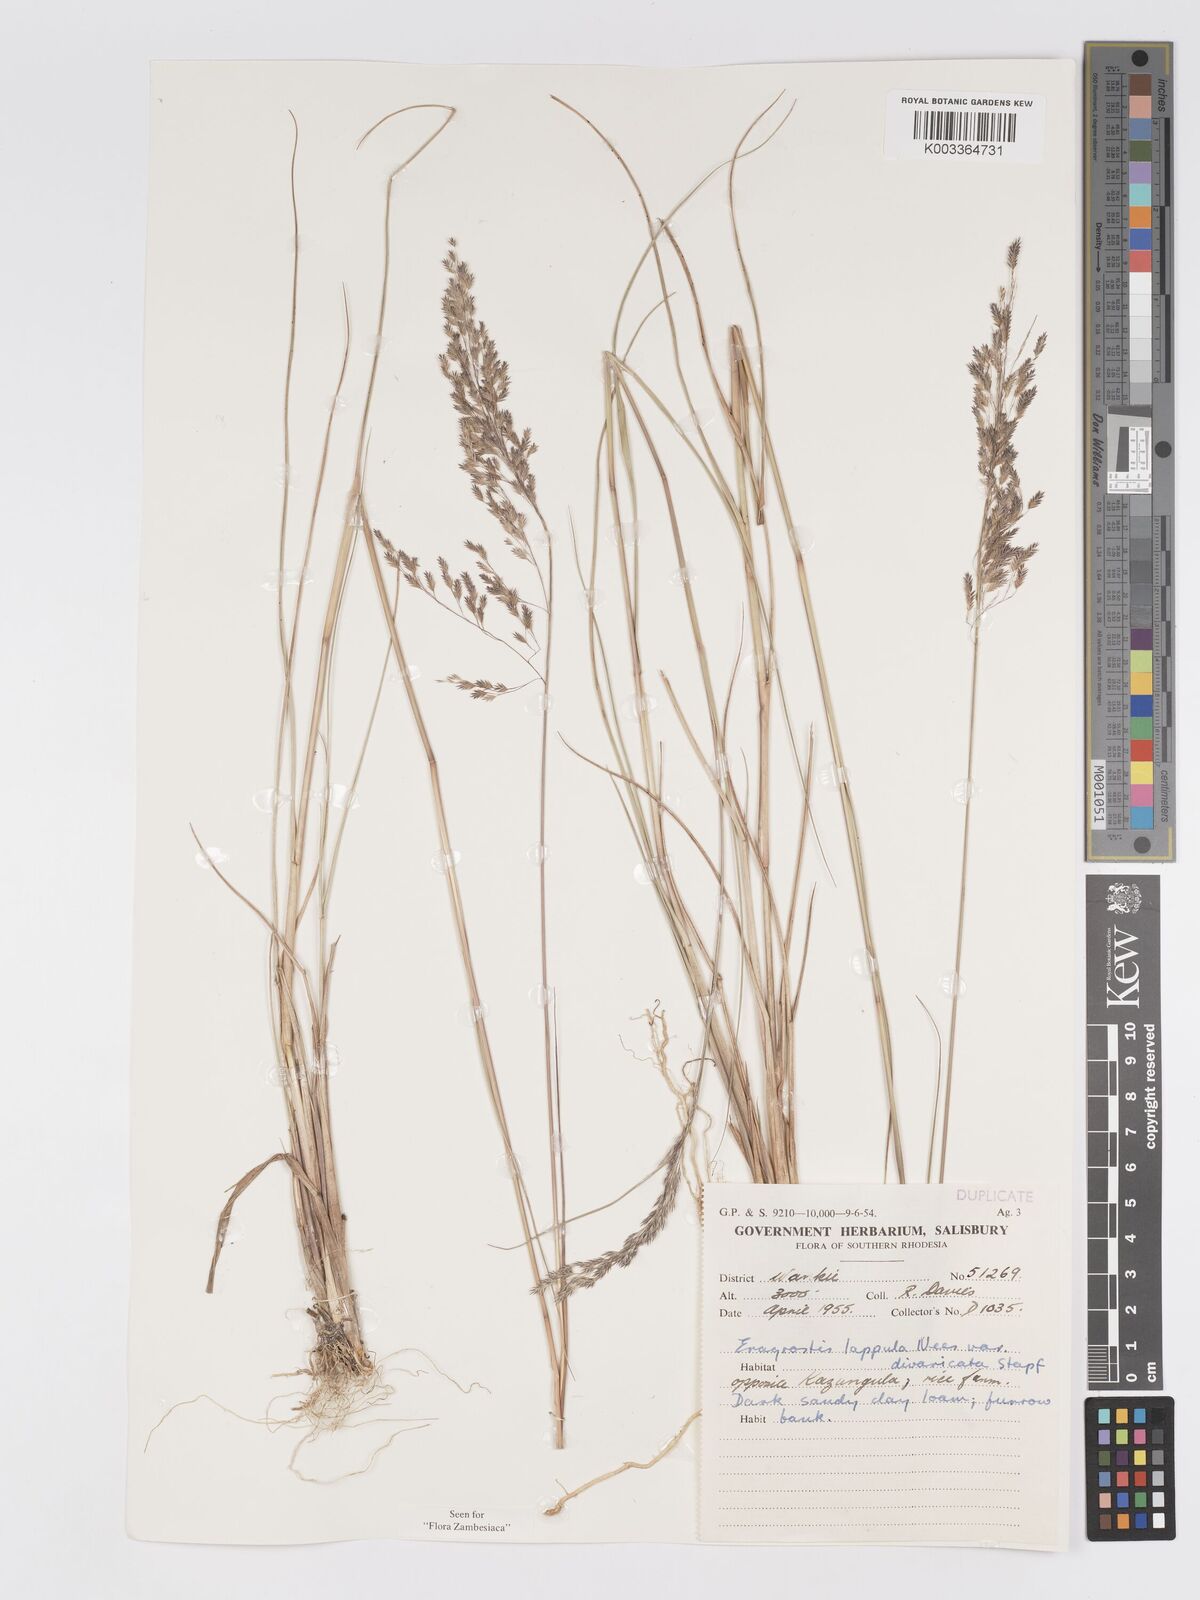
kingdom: Plantae
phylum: Tracheophyta
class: Liliopsida
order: Poales
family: Poaceae
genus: Eragrostis
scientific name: Eragrostis lappula
